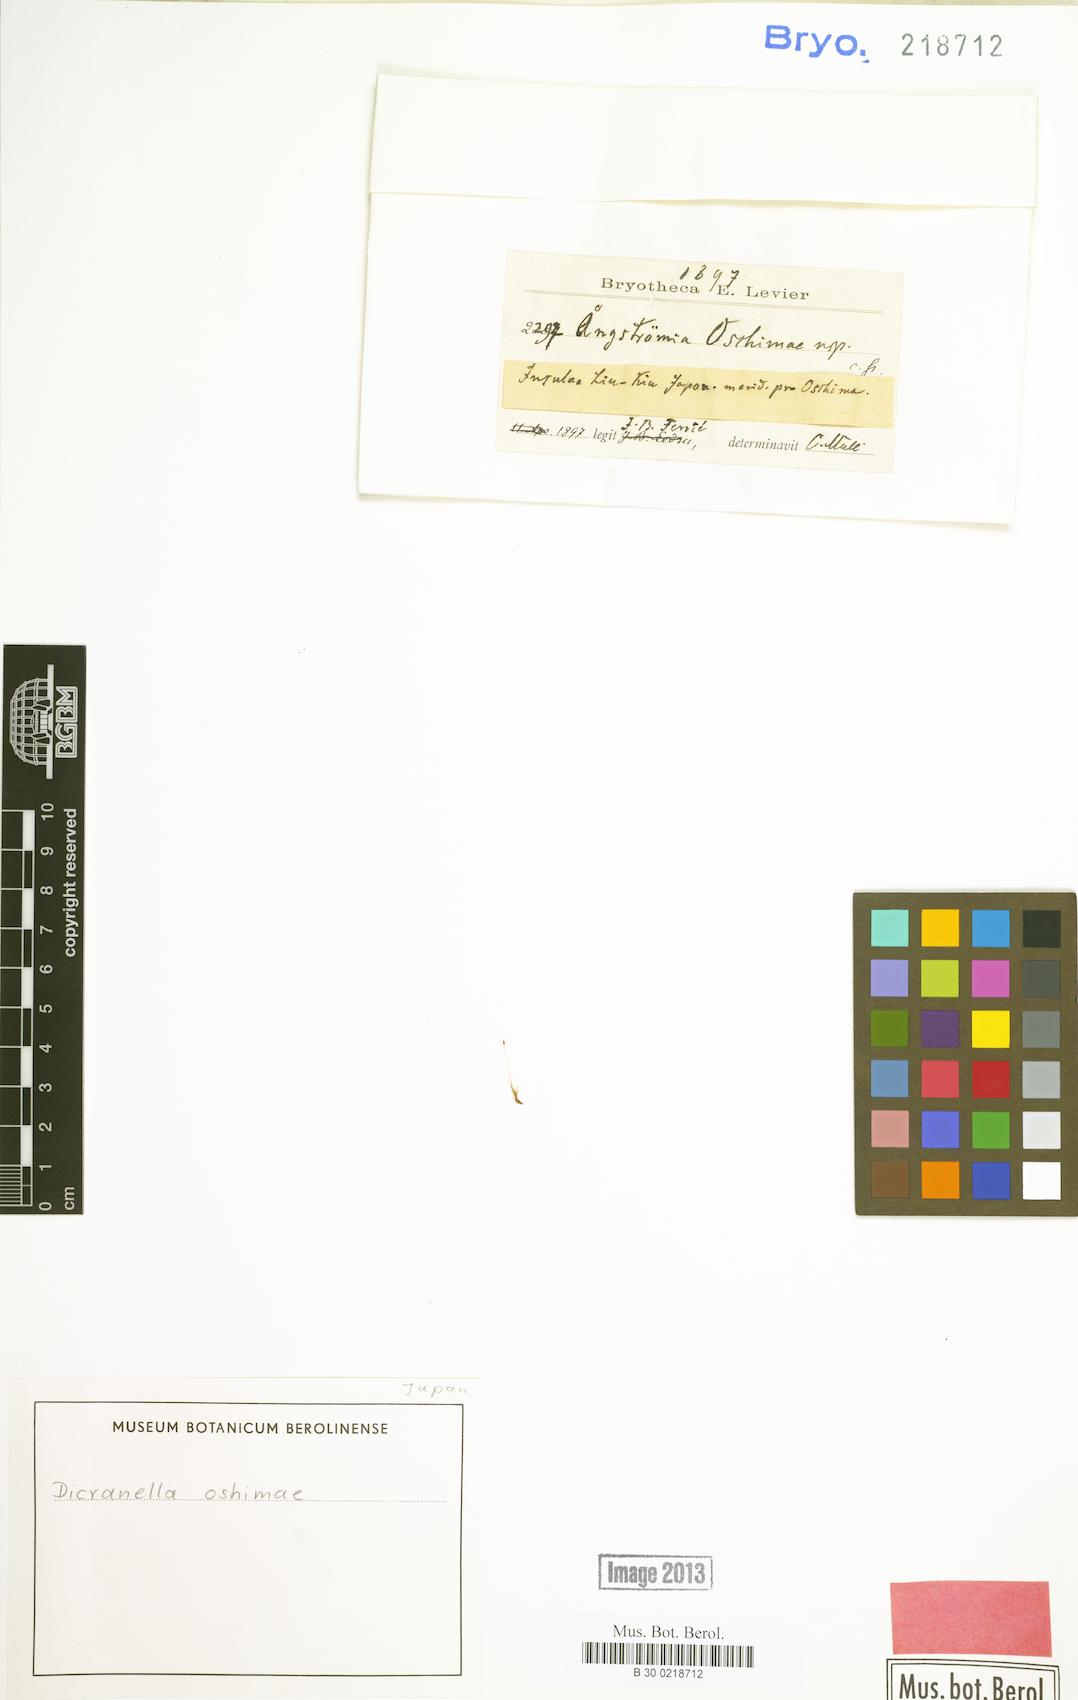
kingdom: Plantae
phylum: Bryophyta
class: Bryopsida
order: Dicranales
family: Dicranellaceae
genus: Dicranella
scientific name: Dicranella oshimae
